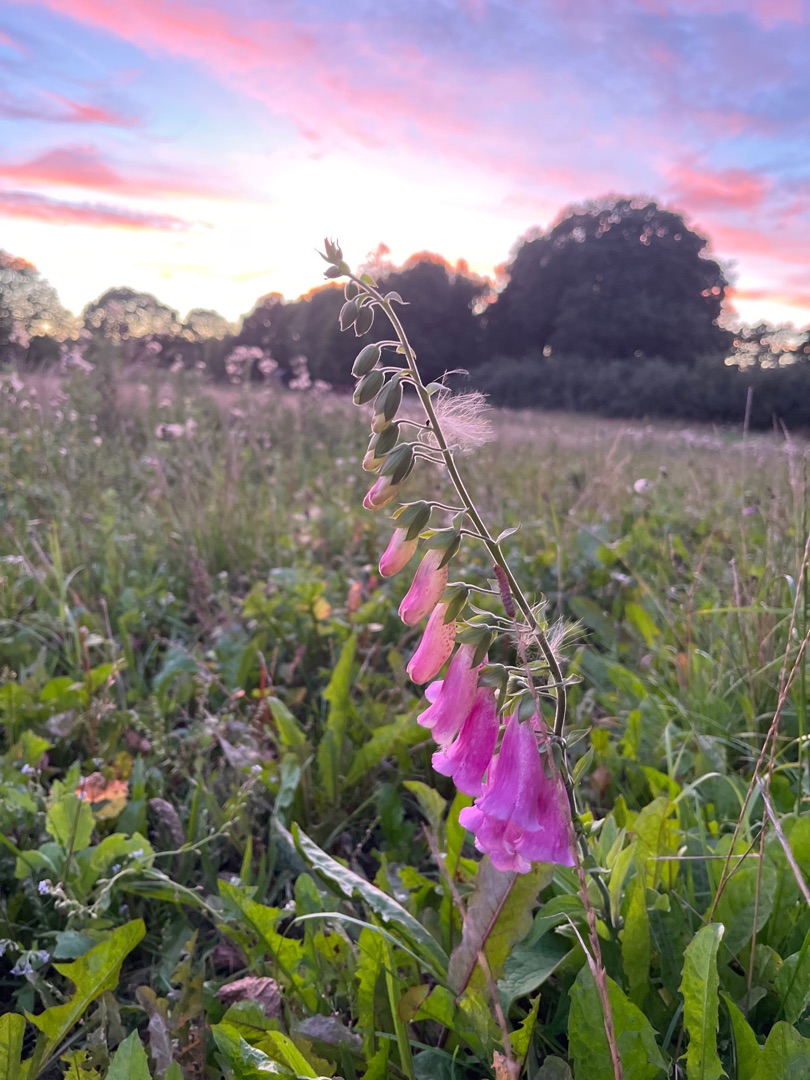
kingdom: Plantae
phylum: Tracheophyta
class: Magnoliopsida
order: Lamiales
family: Plantaginaceae
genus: Digitalis
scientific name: Digitalis purpurea
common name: Almindelig fingerbøl
